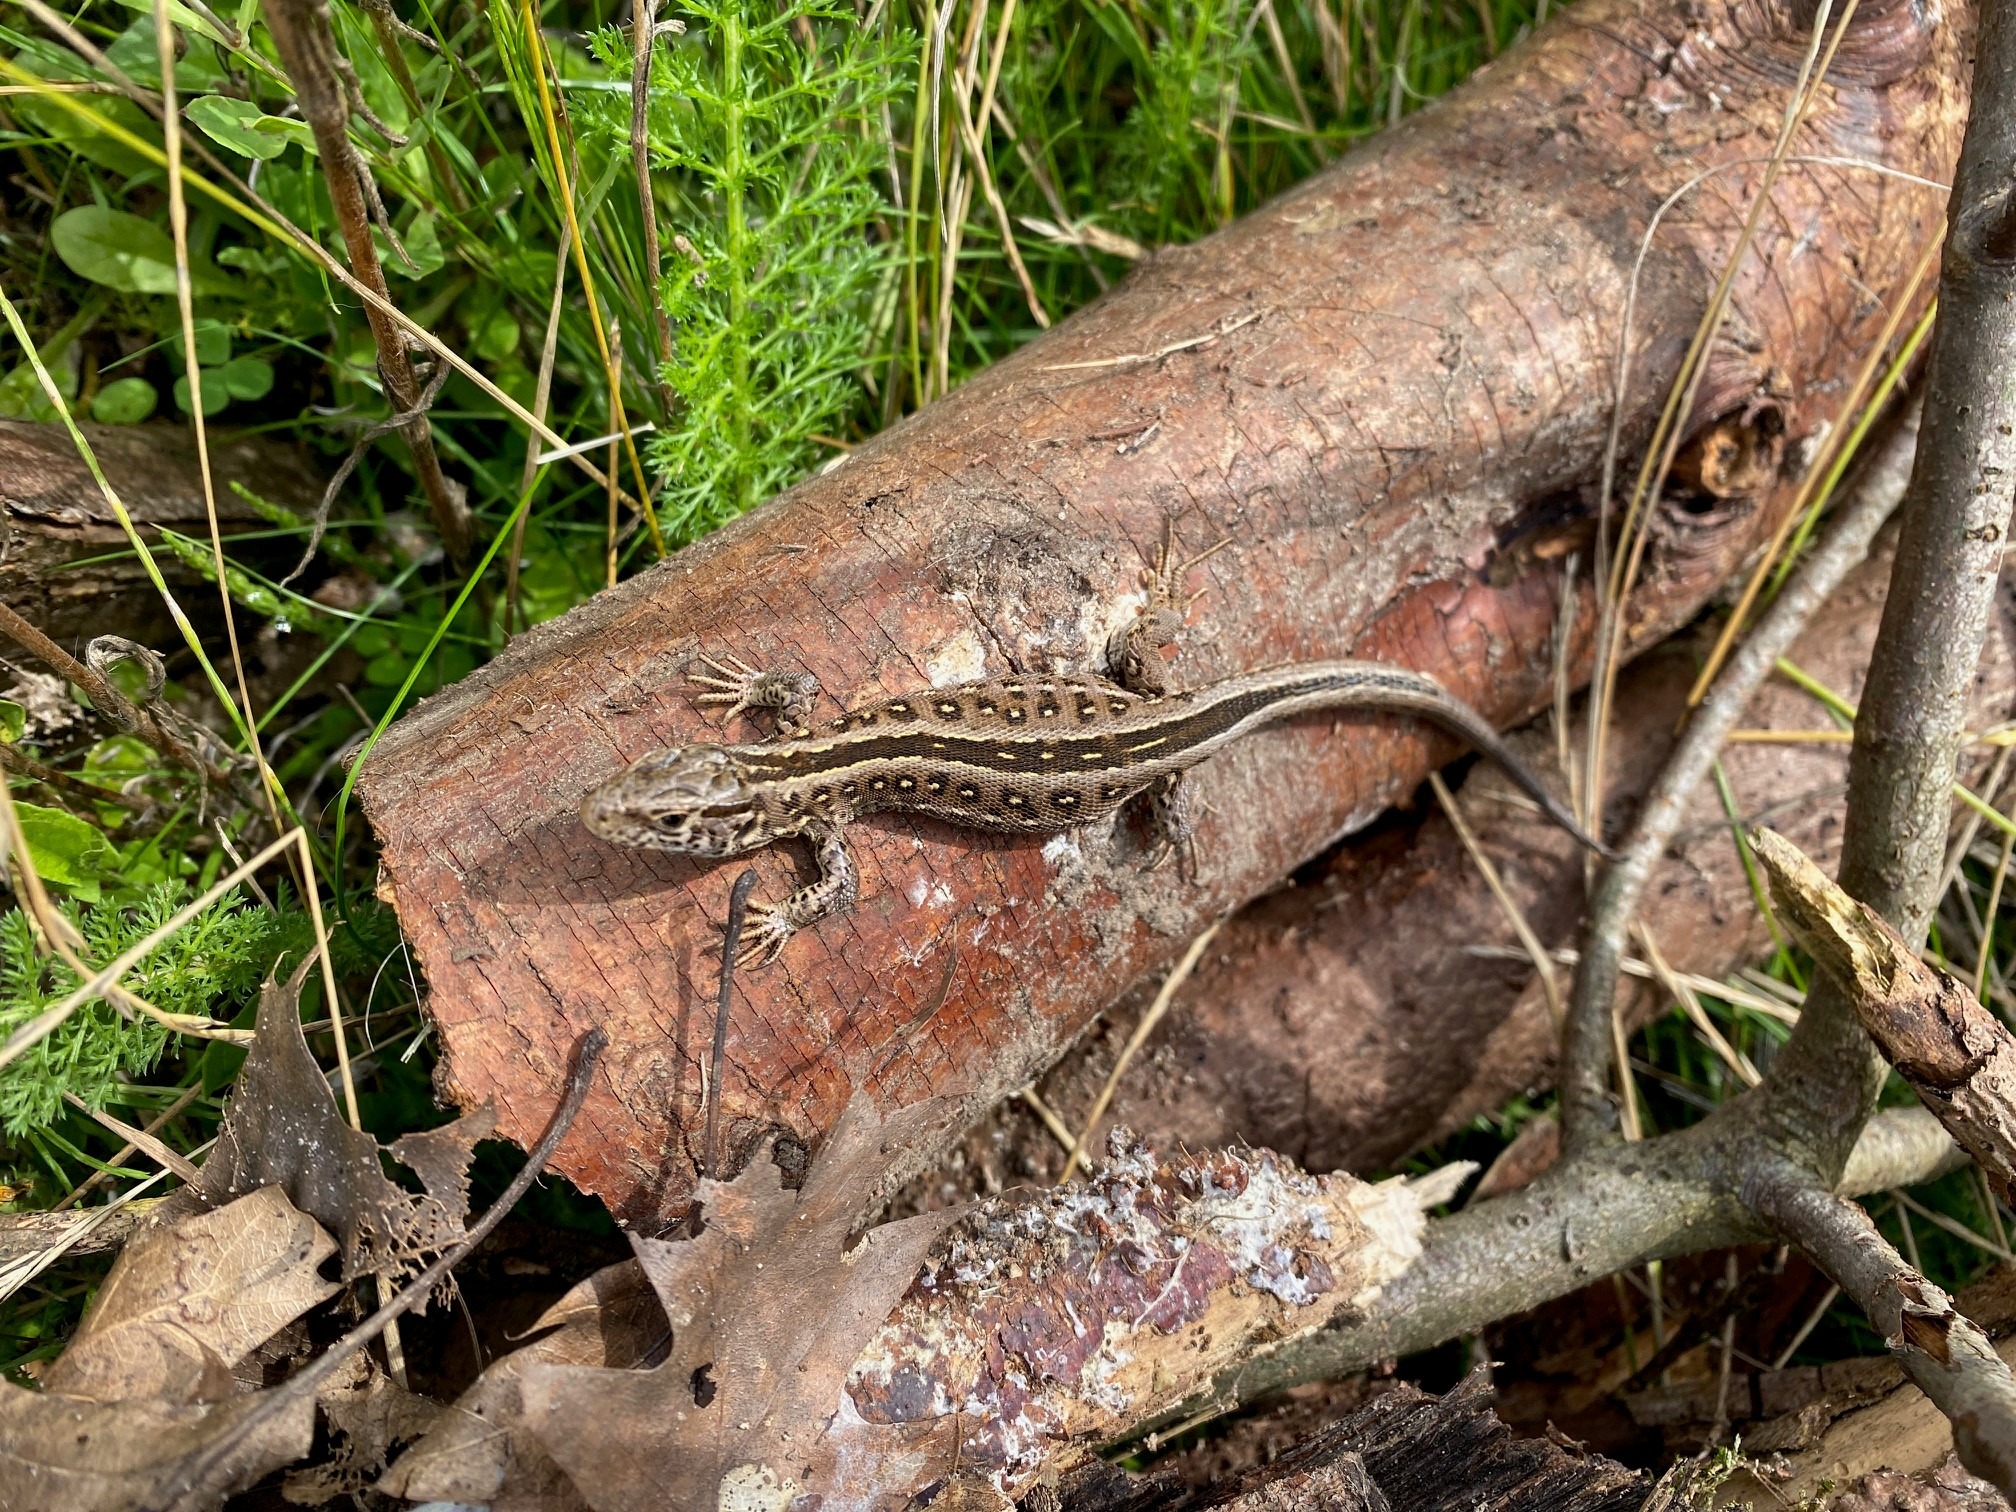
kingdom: Animalia
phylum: Chordata
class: Squamata
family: Lacertidae
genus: Lacerta
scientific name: Lacerta agilis
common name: Markfirben
